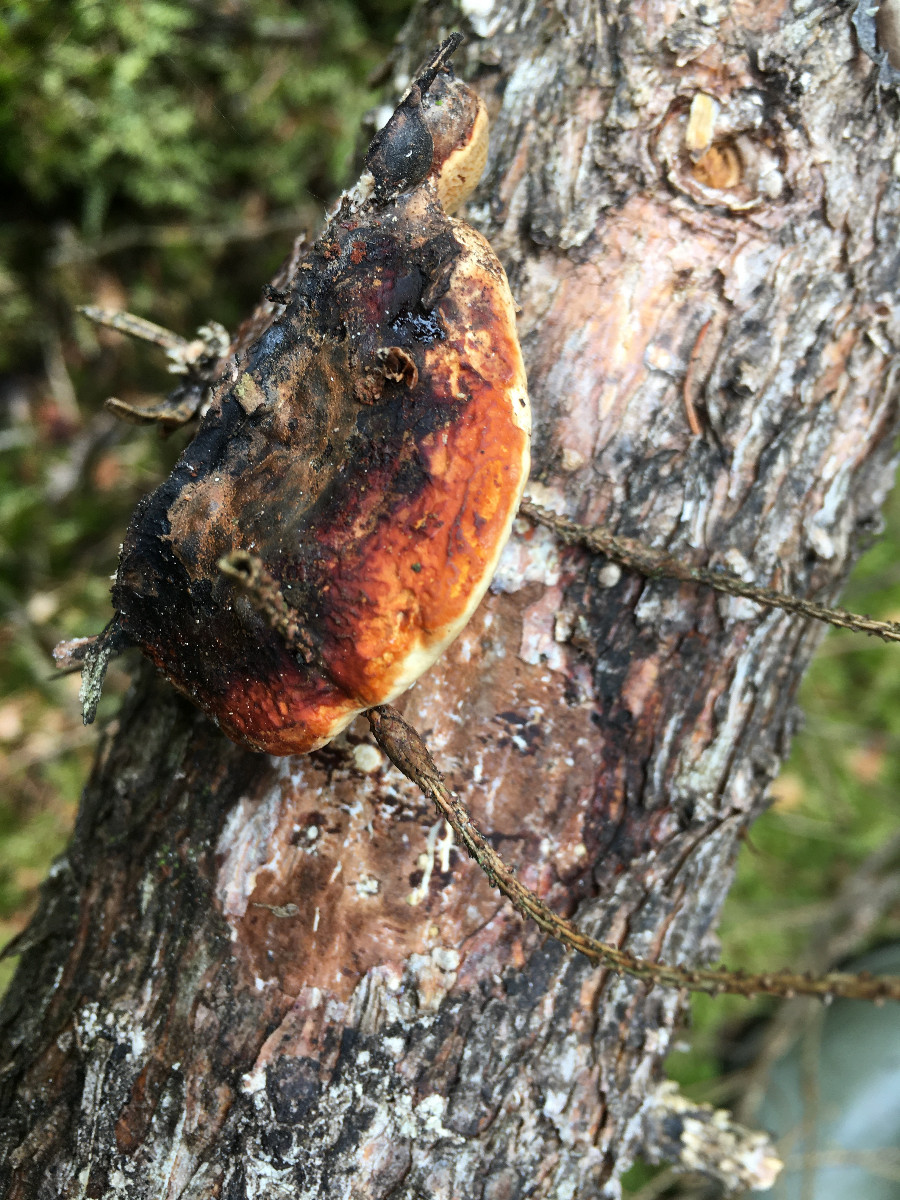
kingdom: Fungi
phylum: Basidiomycota
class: Agaricomycetes
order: Polyporales
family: Fomitopsidaceae
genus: Fomitopsis
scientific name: Fomitopsis pinicola
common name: randbæltet hovporesvamp
